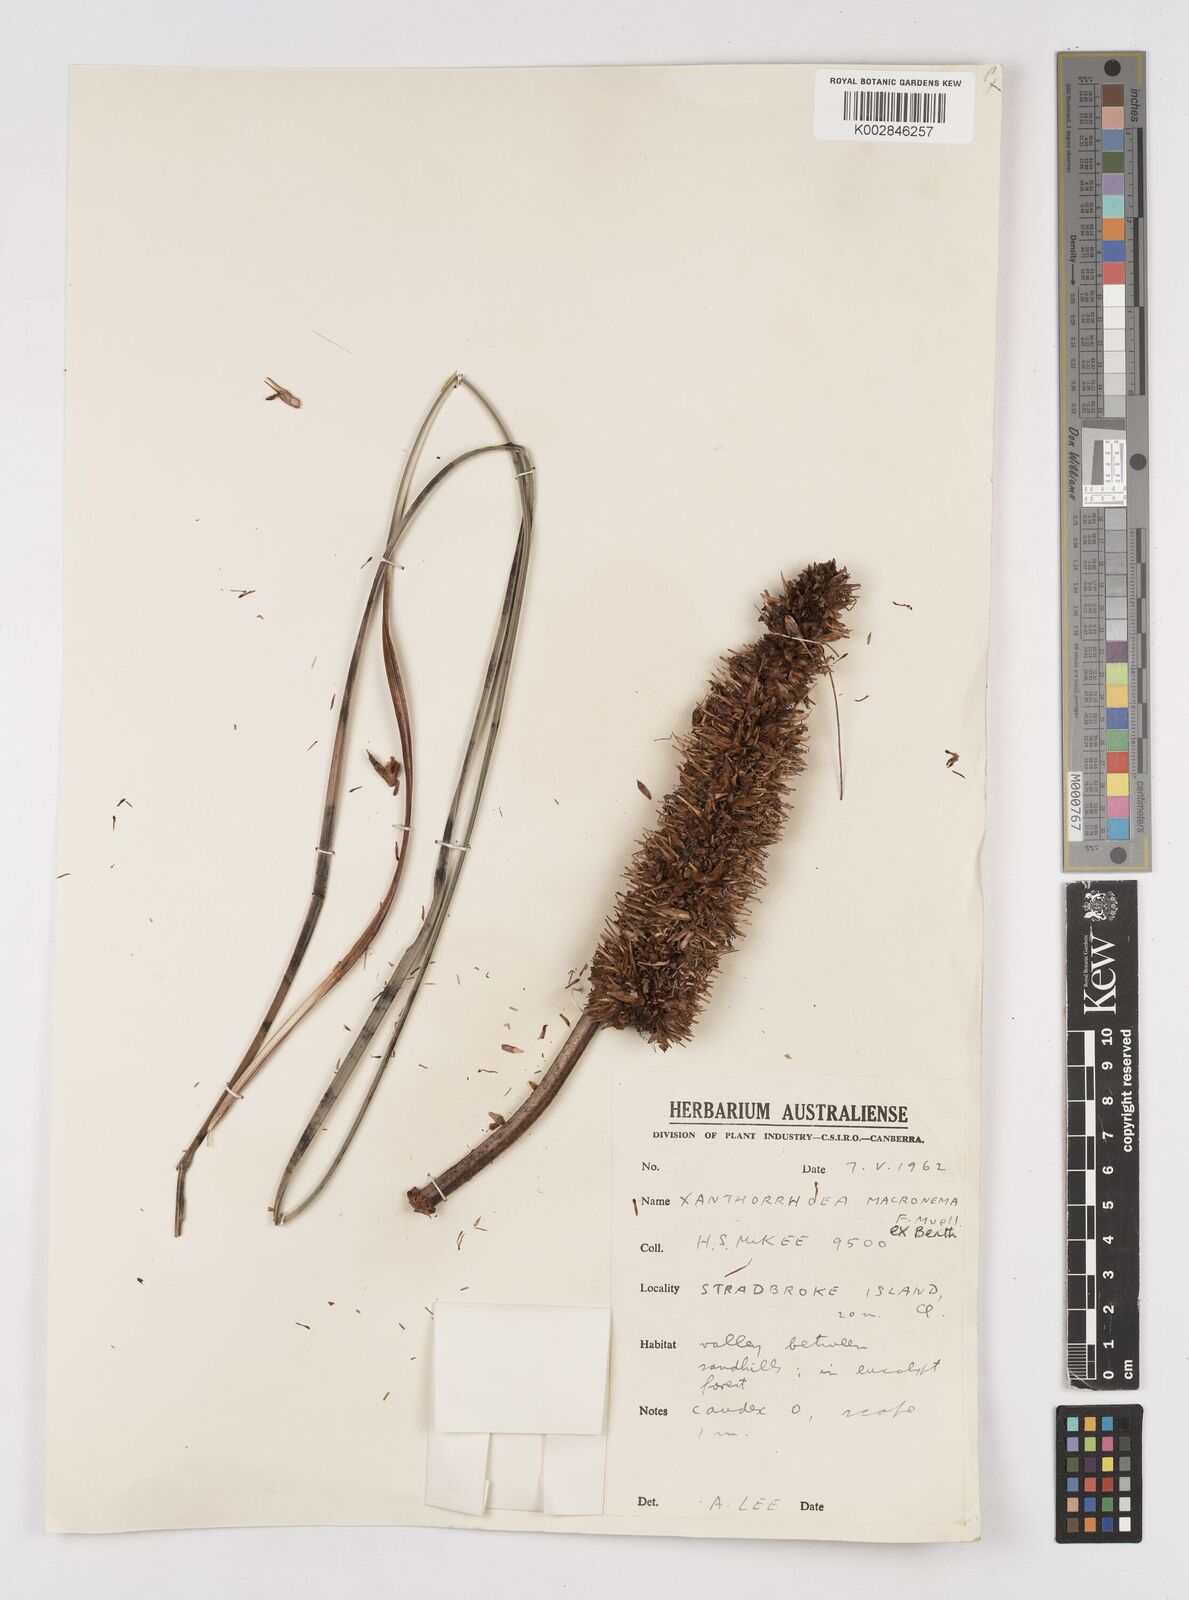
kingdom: Plantae
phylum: Tracheophyta
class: Liliopsida
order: Asparagales
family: Asphodelaceae
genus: Xanthorrhoea
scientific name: Xanthorrhoea macronema
